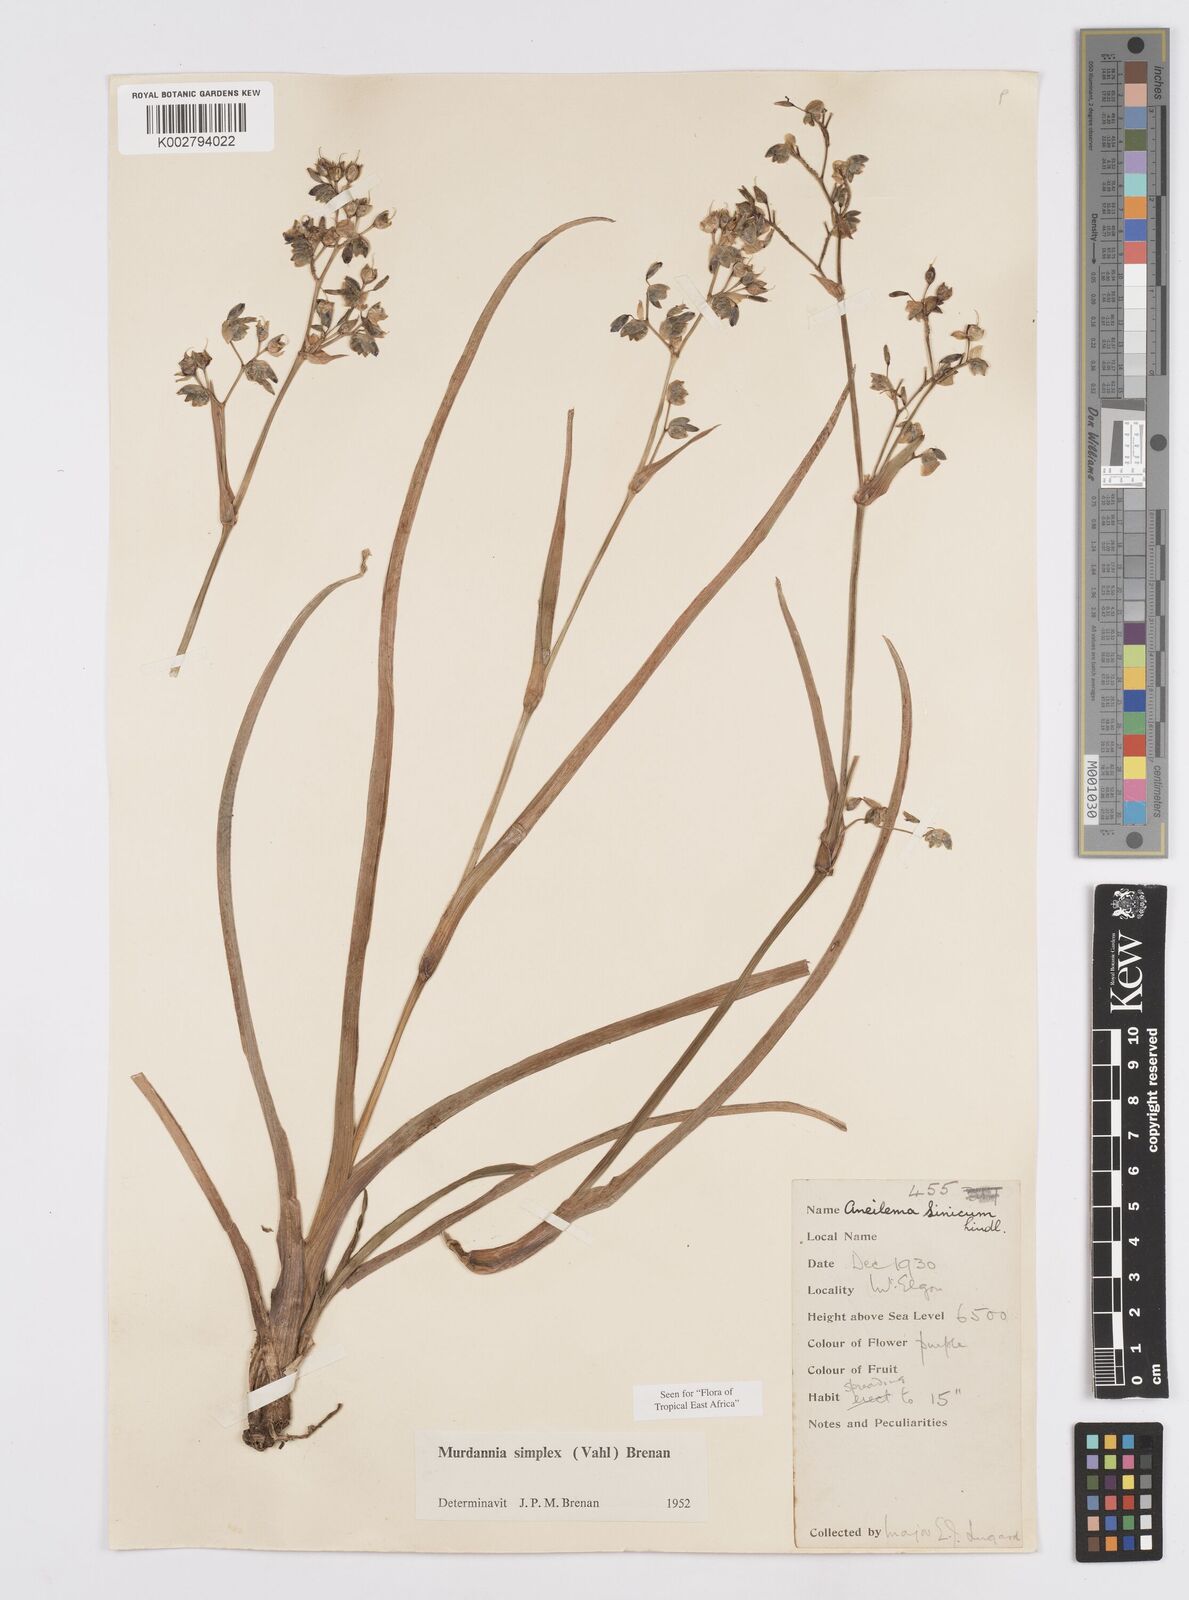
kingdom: Plantae
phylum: Tracheophyta
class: Liliopsida
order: Commelinales
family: Commelinaceae
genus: Murdannia
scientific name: Murdannia simplex
